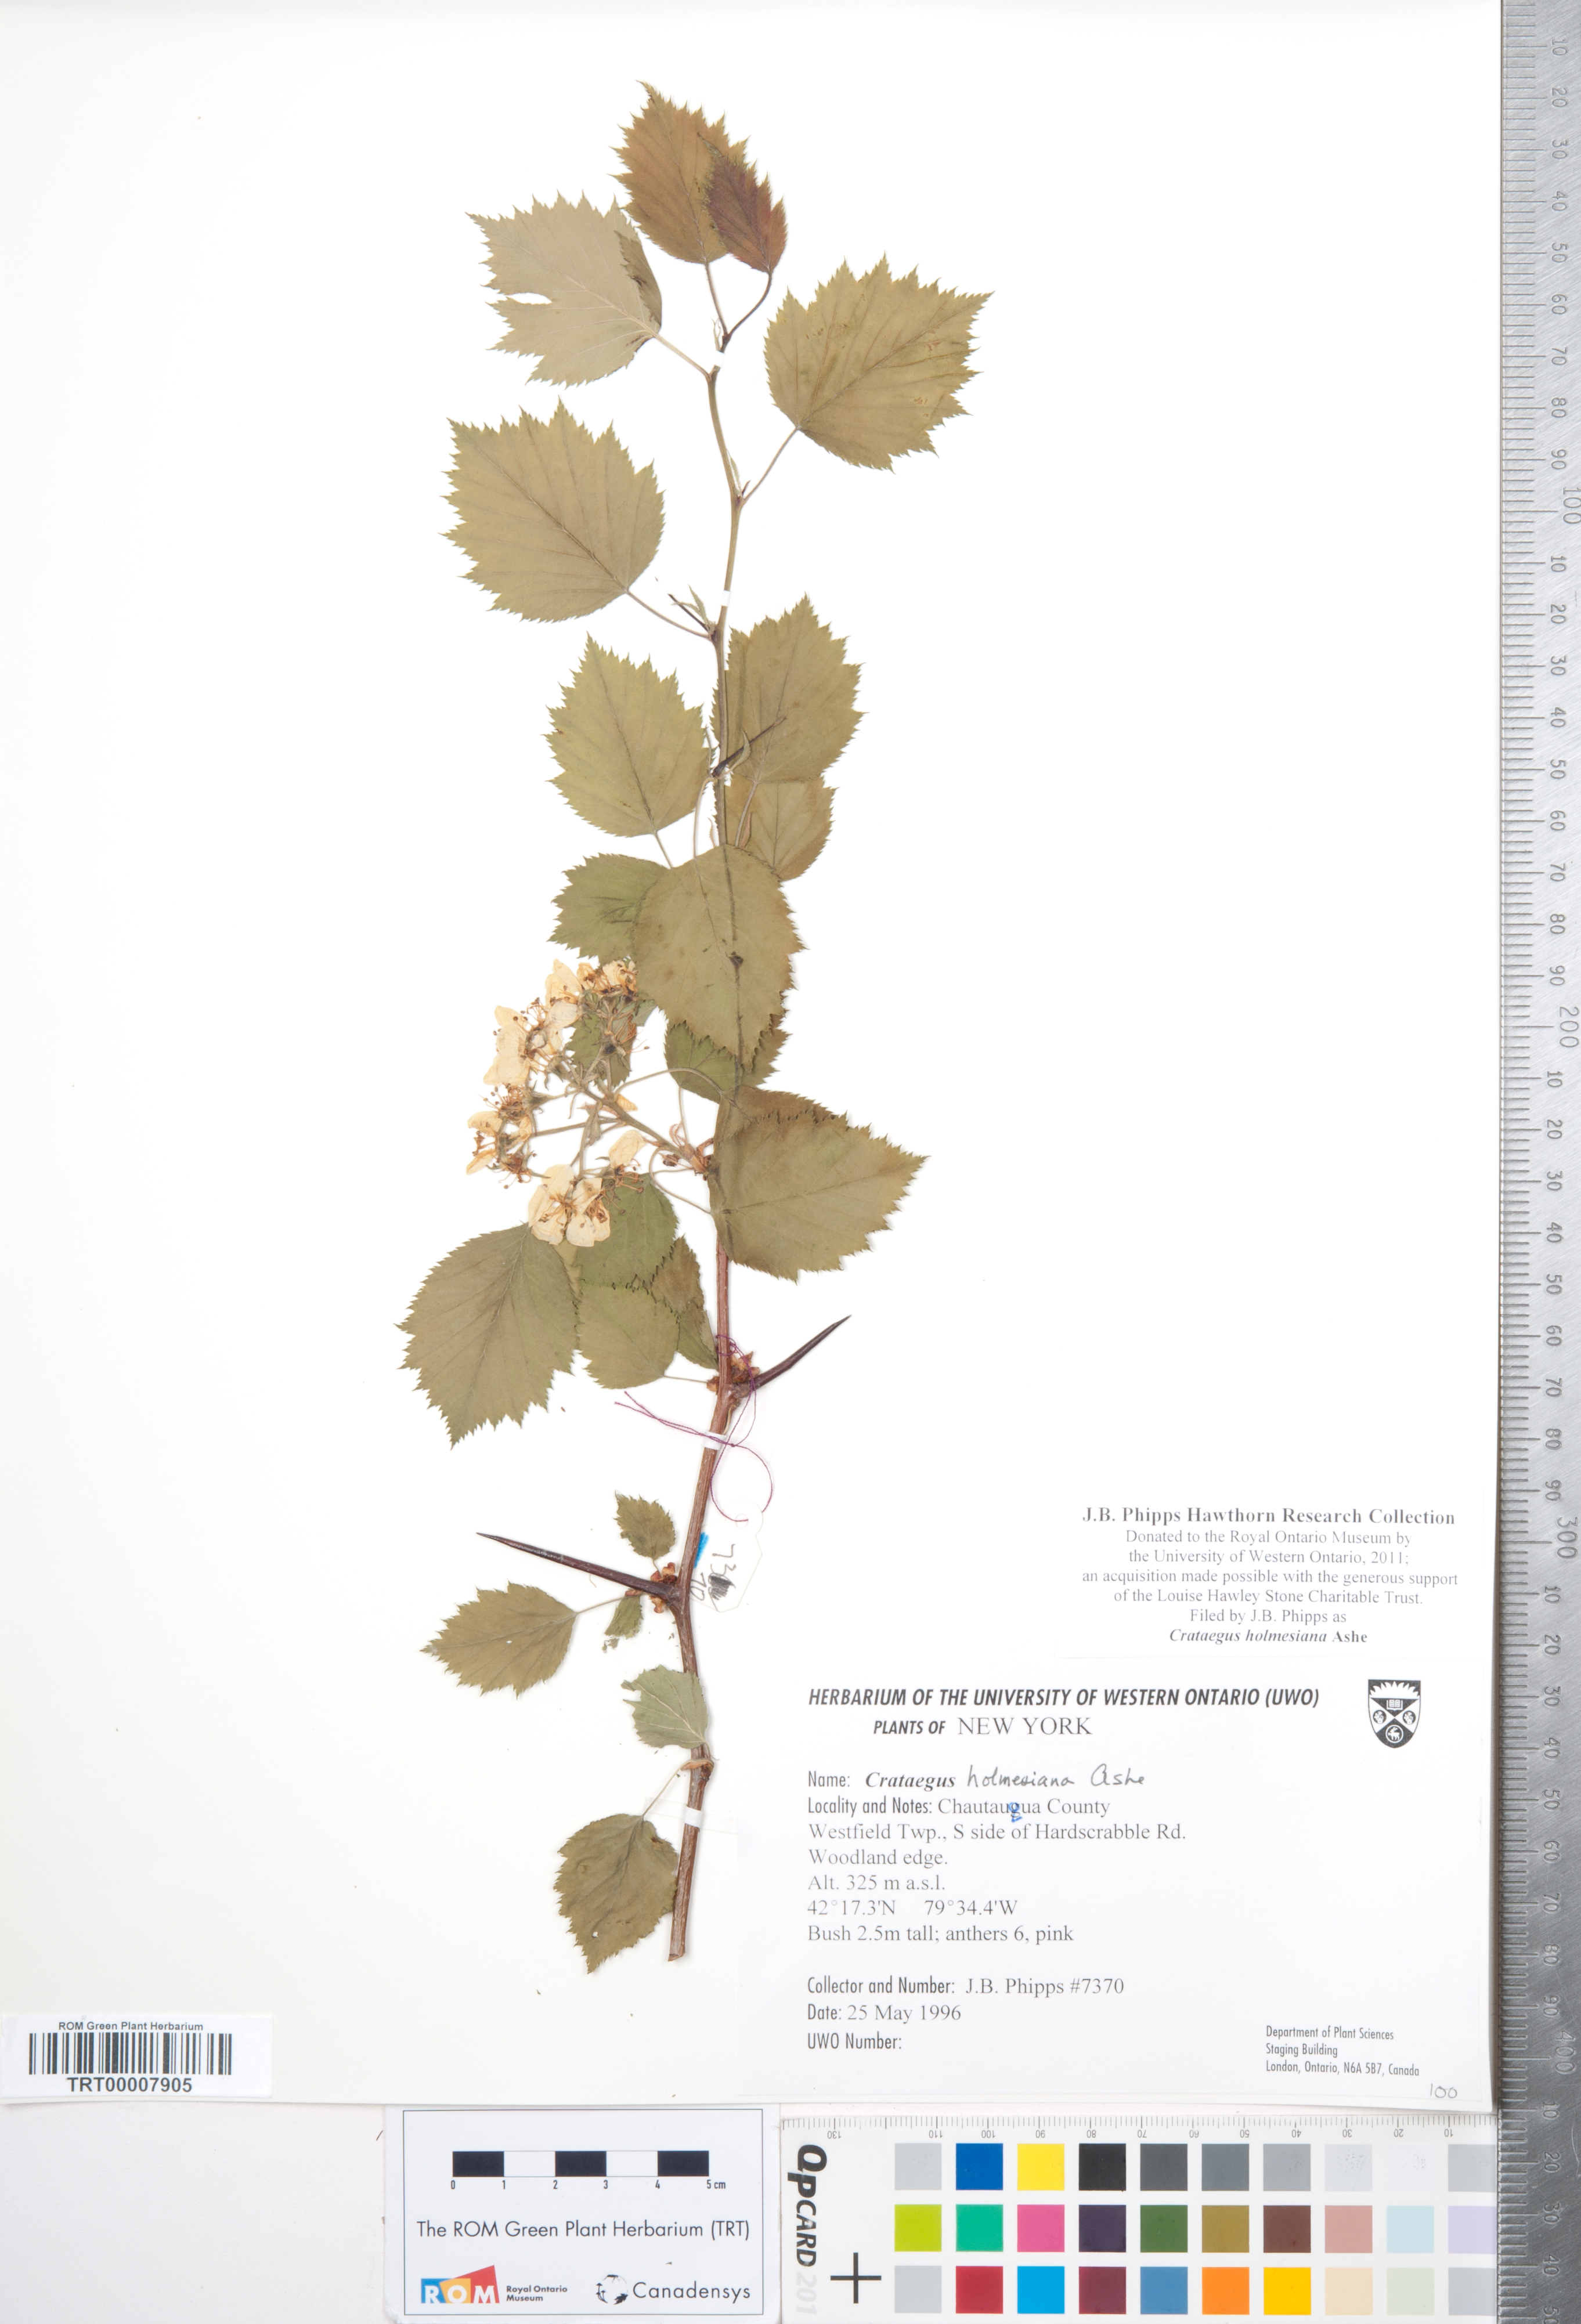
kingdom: Plantae
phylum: Tracheophyta
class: Magnoliopsida
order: Rosales
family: Rosaceae
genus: Crataegus
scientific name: Crataegus holmesiana
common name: Holmes' hawthorn
